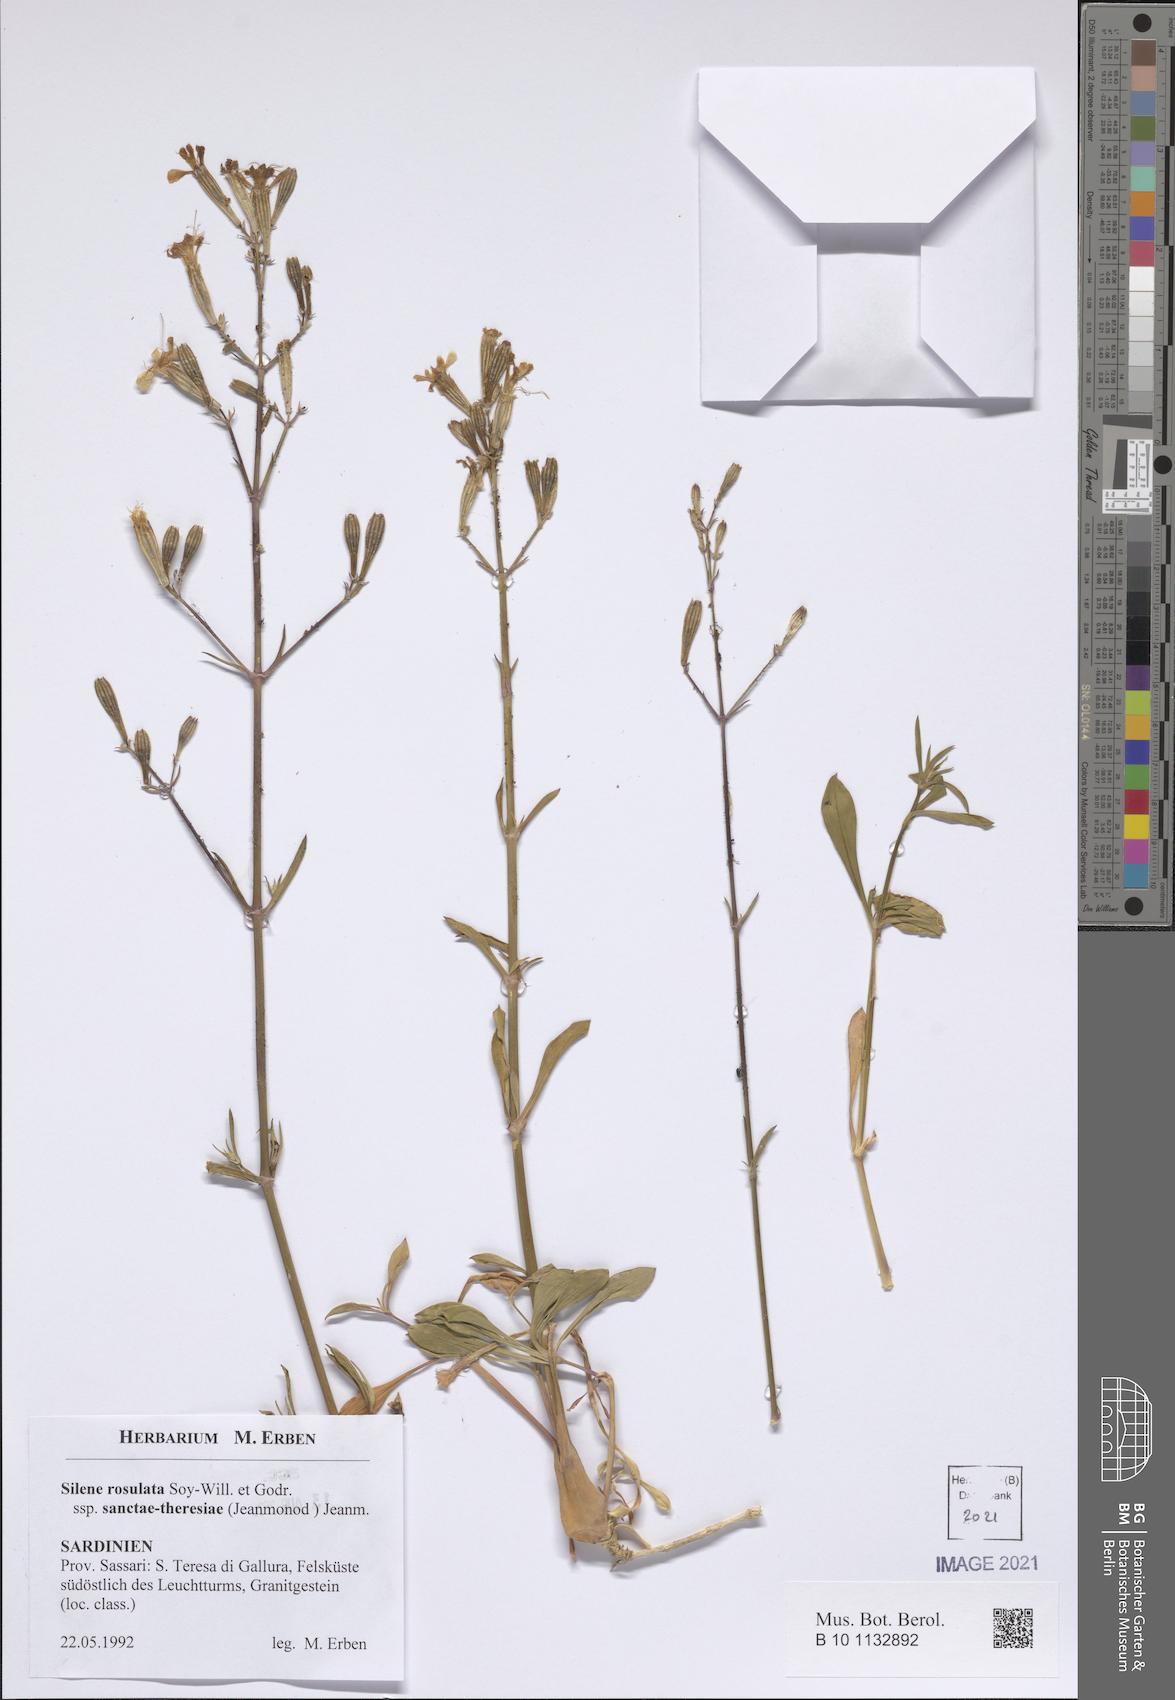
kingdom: Plantae
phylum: Tracheophyta
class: Magnoliopsida
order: Caryophyllales
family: Caryophyllaceae
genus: Silene
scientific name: Silene rosulata
